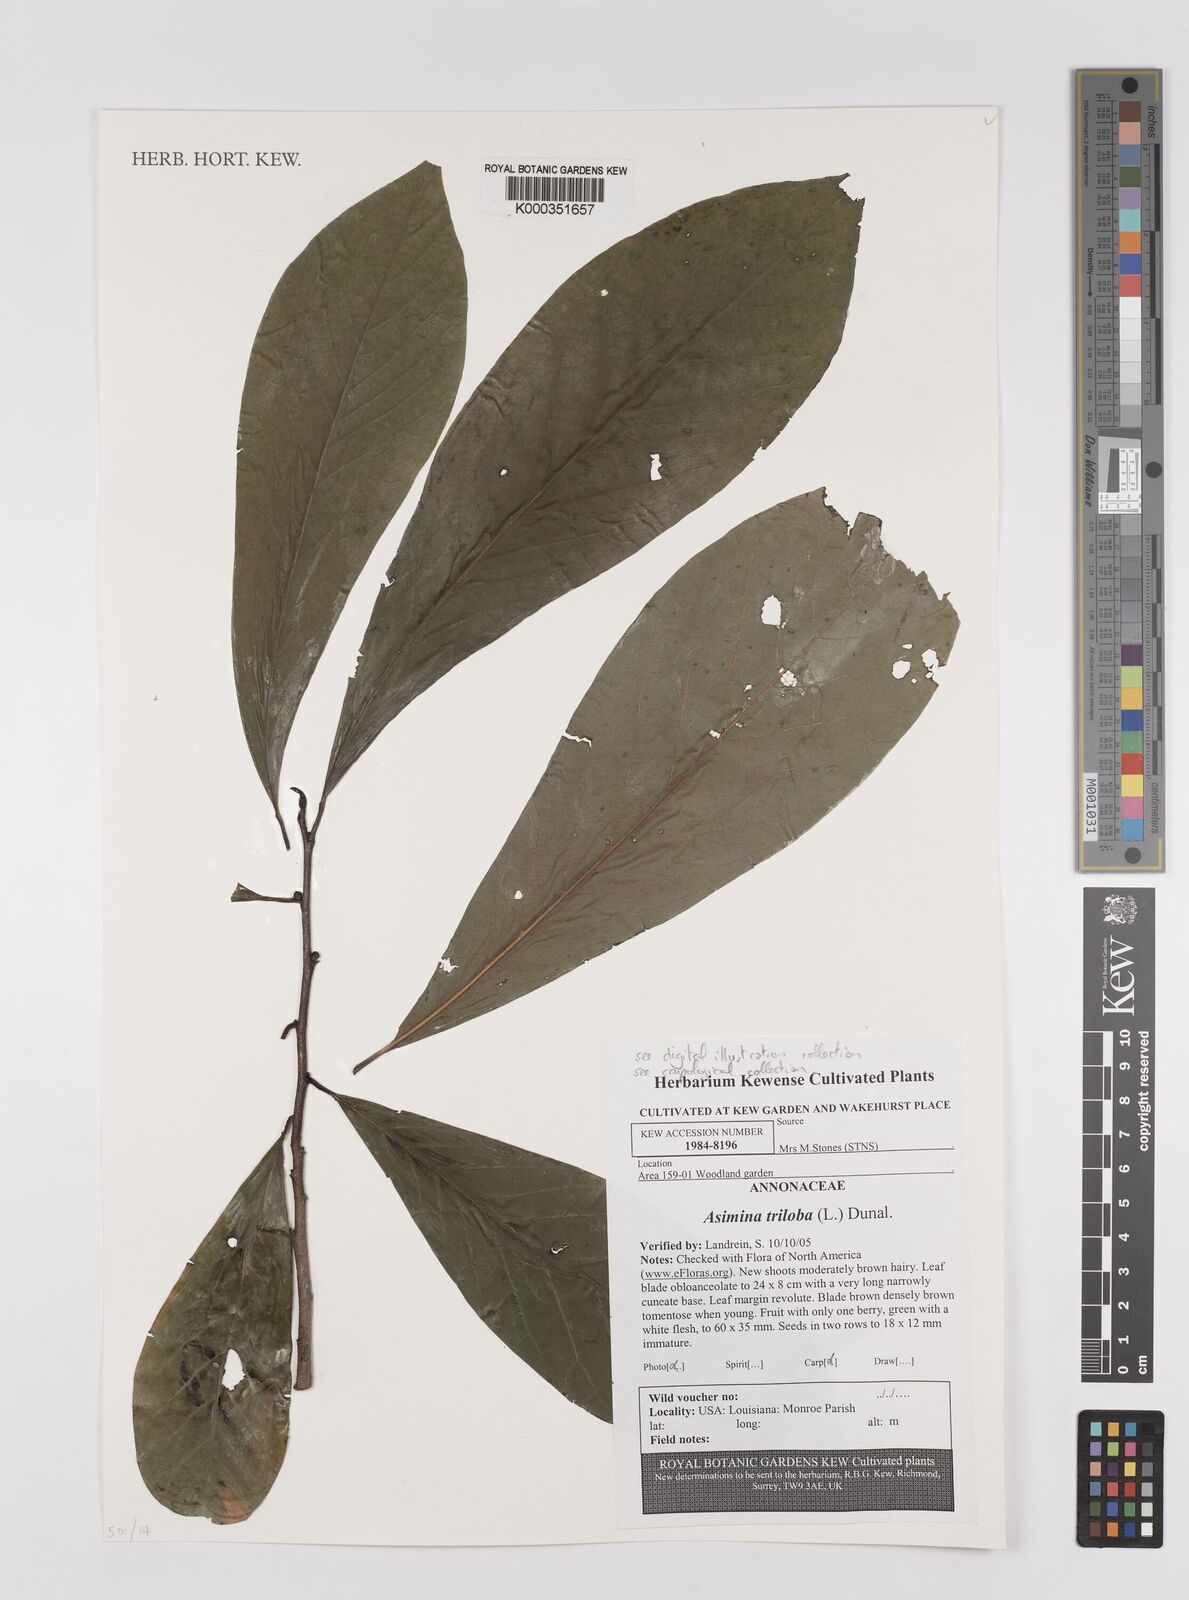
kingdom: Plantae
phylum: Tracheophyta
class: Magnoliopsida
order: Magnoliales
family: Annonaceae
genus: Asimina
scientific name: Asimina triloba
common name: Dog-banana
